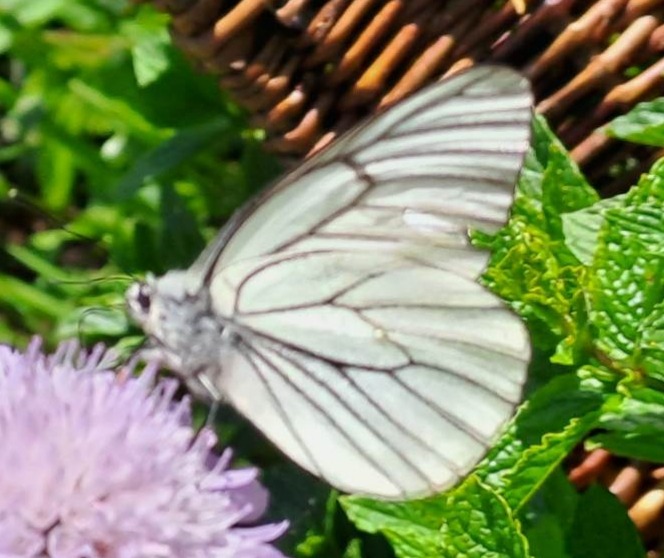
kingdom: Animalia
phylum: Arthropoda
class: Insecta
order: Lepidoptera
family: Pieridae
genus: Aporia
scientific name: Aporia crataegi
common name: Sortåret hvidvinge
